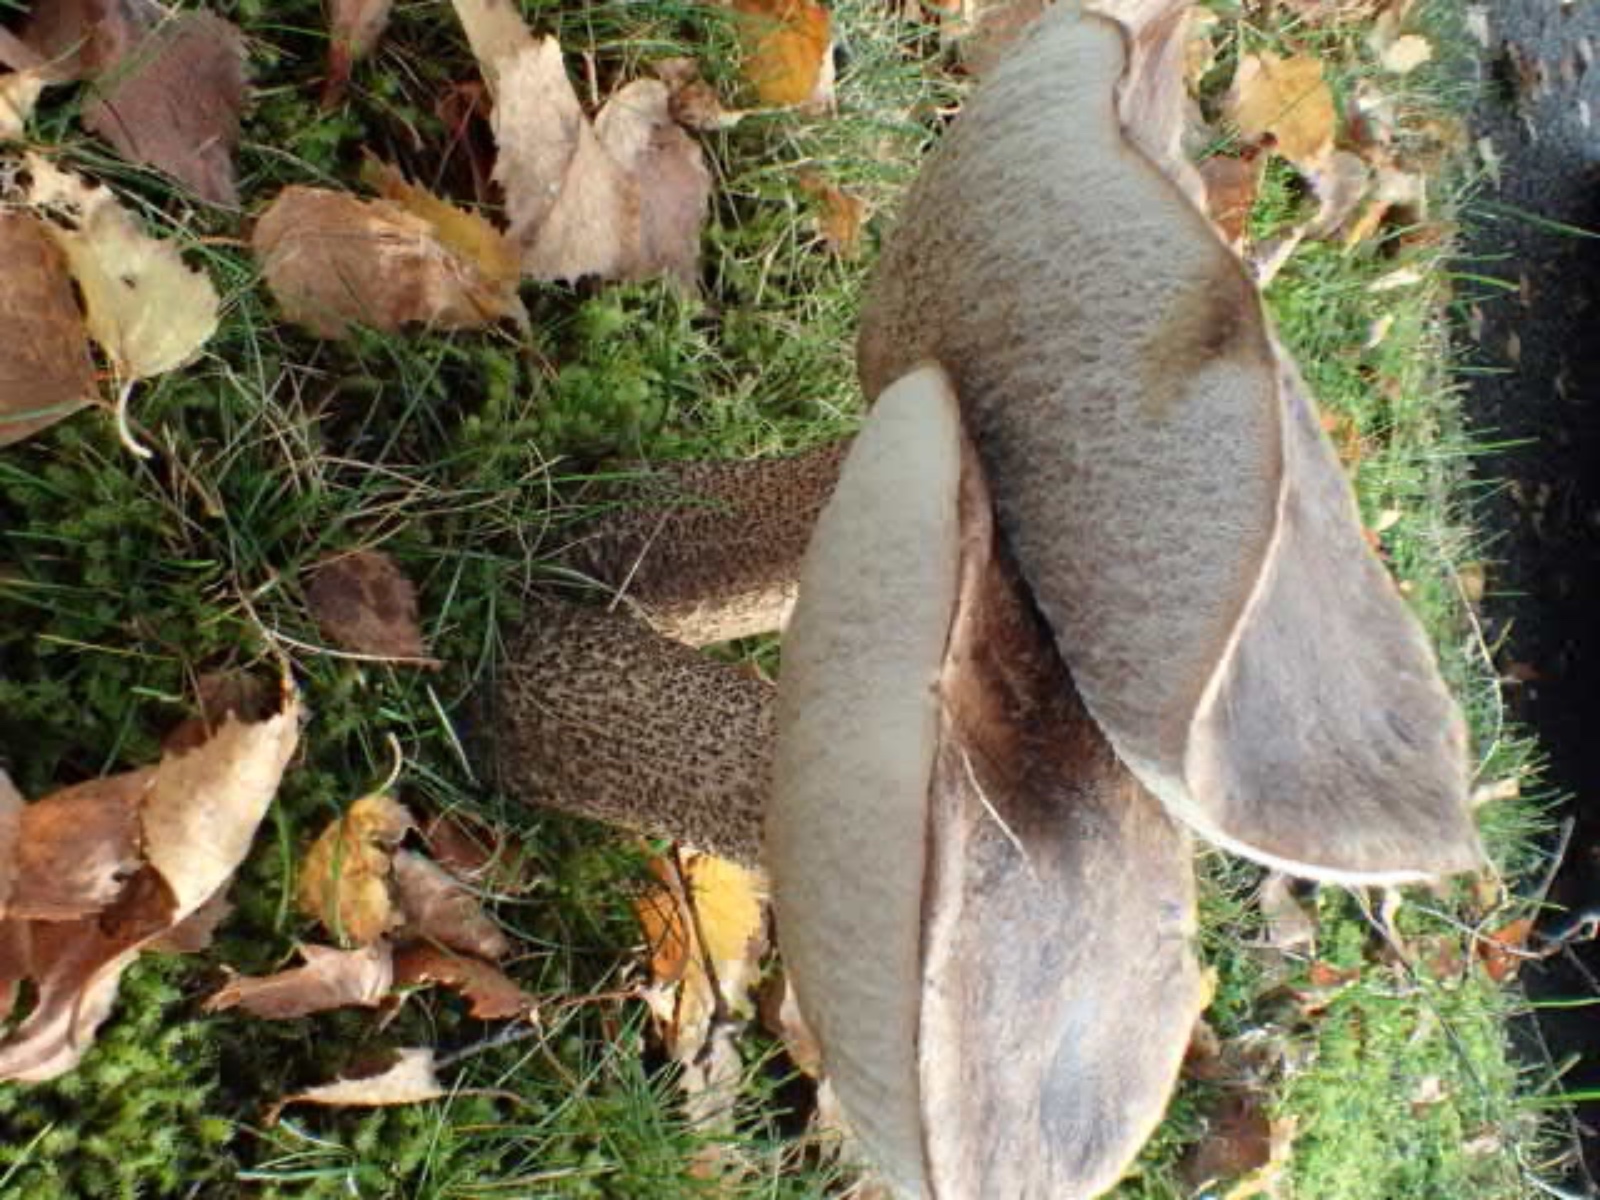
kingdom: Fungi
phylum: Basidiomycota
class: Agaricomycetes
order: Boletales
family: Boletaceae
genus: Leccinum
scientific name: Leccinum scabrum
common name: brun skælrørhat
